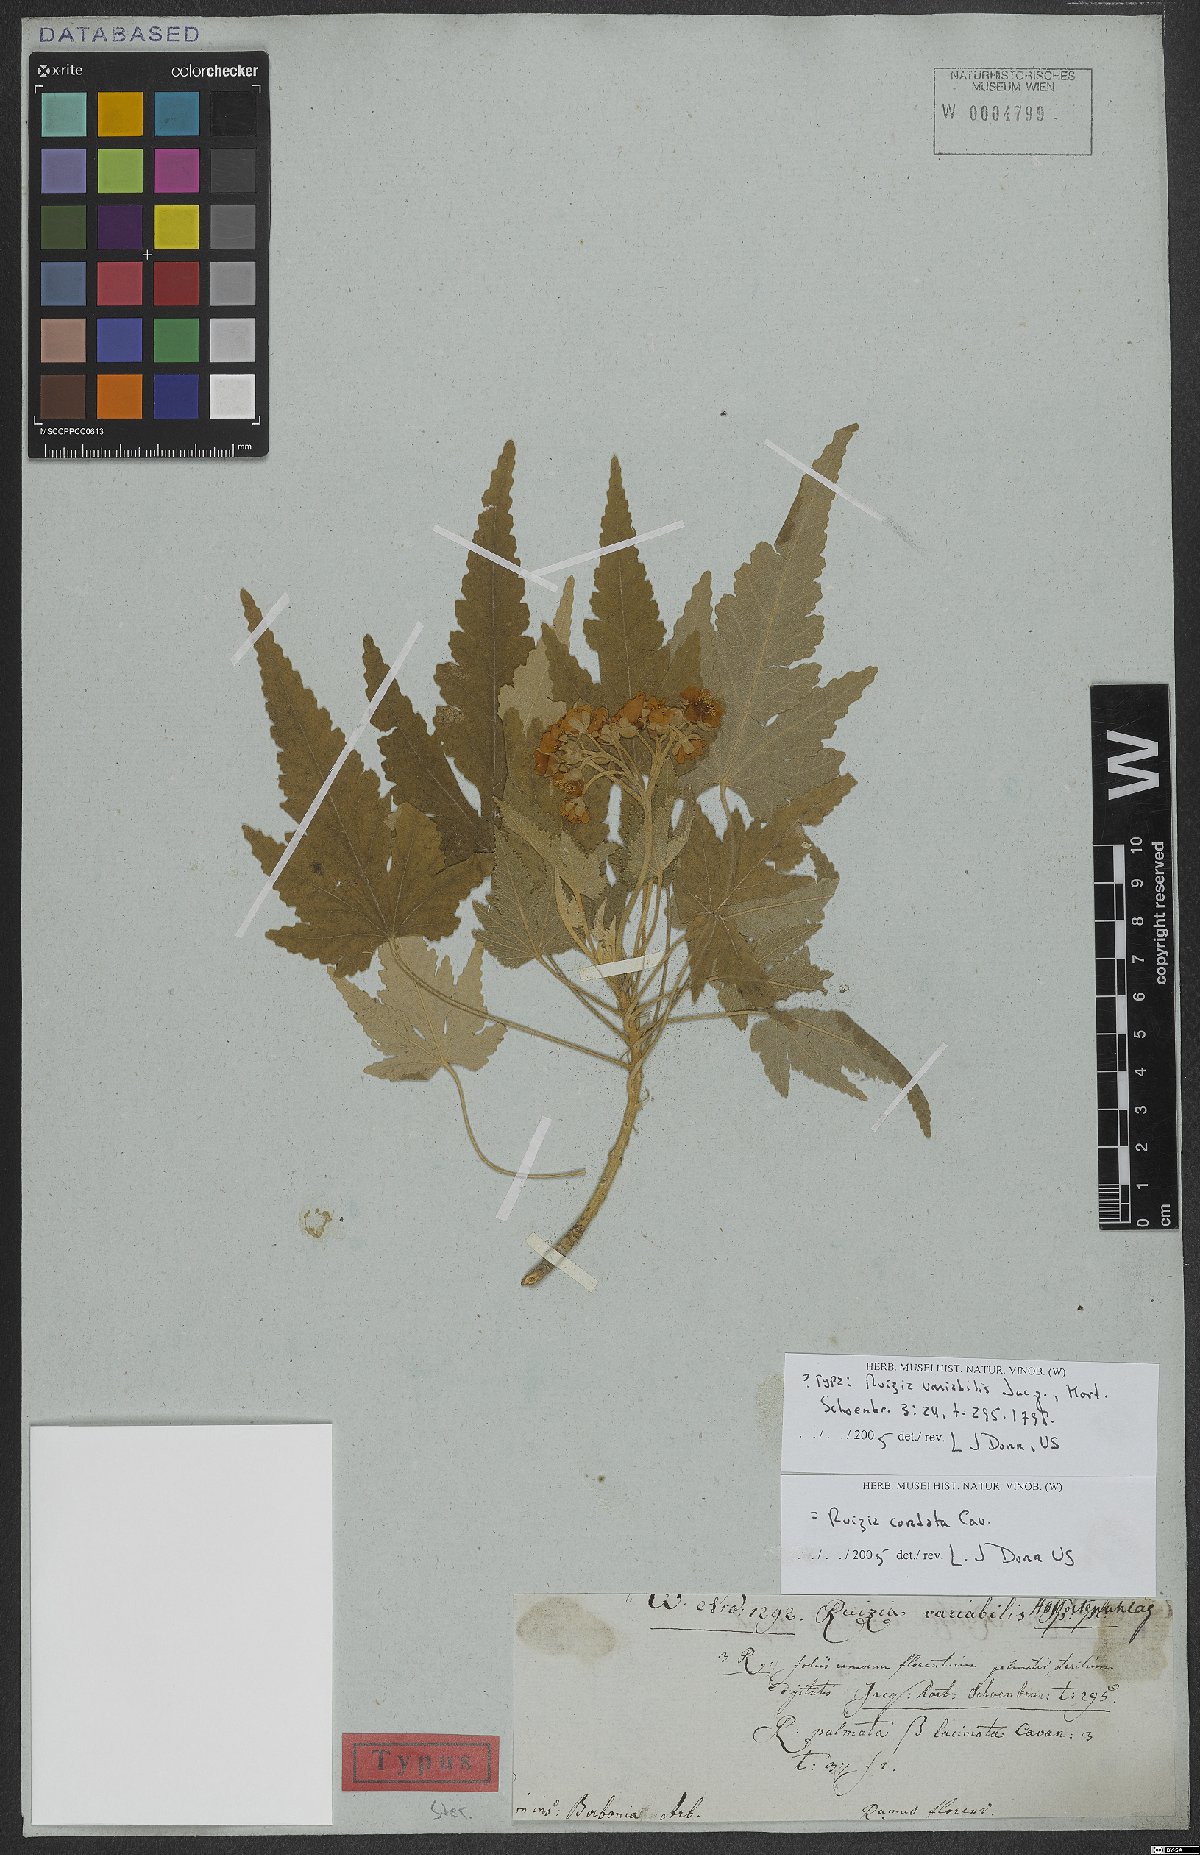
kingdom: Plantae
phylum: Tracheophyta
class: Magnoliopsida
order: Malvales
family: Malvaceae
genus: Ruizia
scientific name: Ruizia cordata
